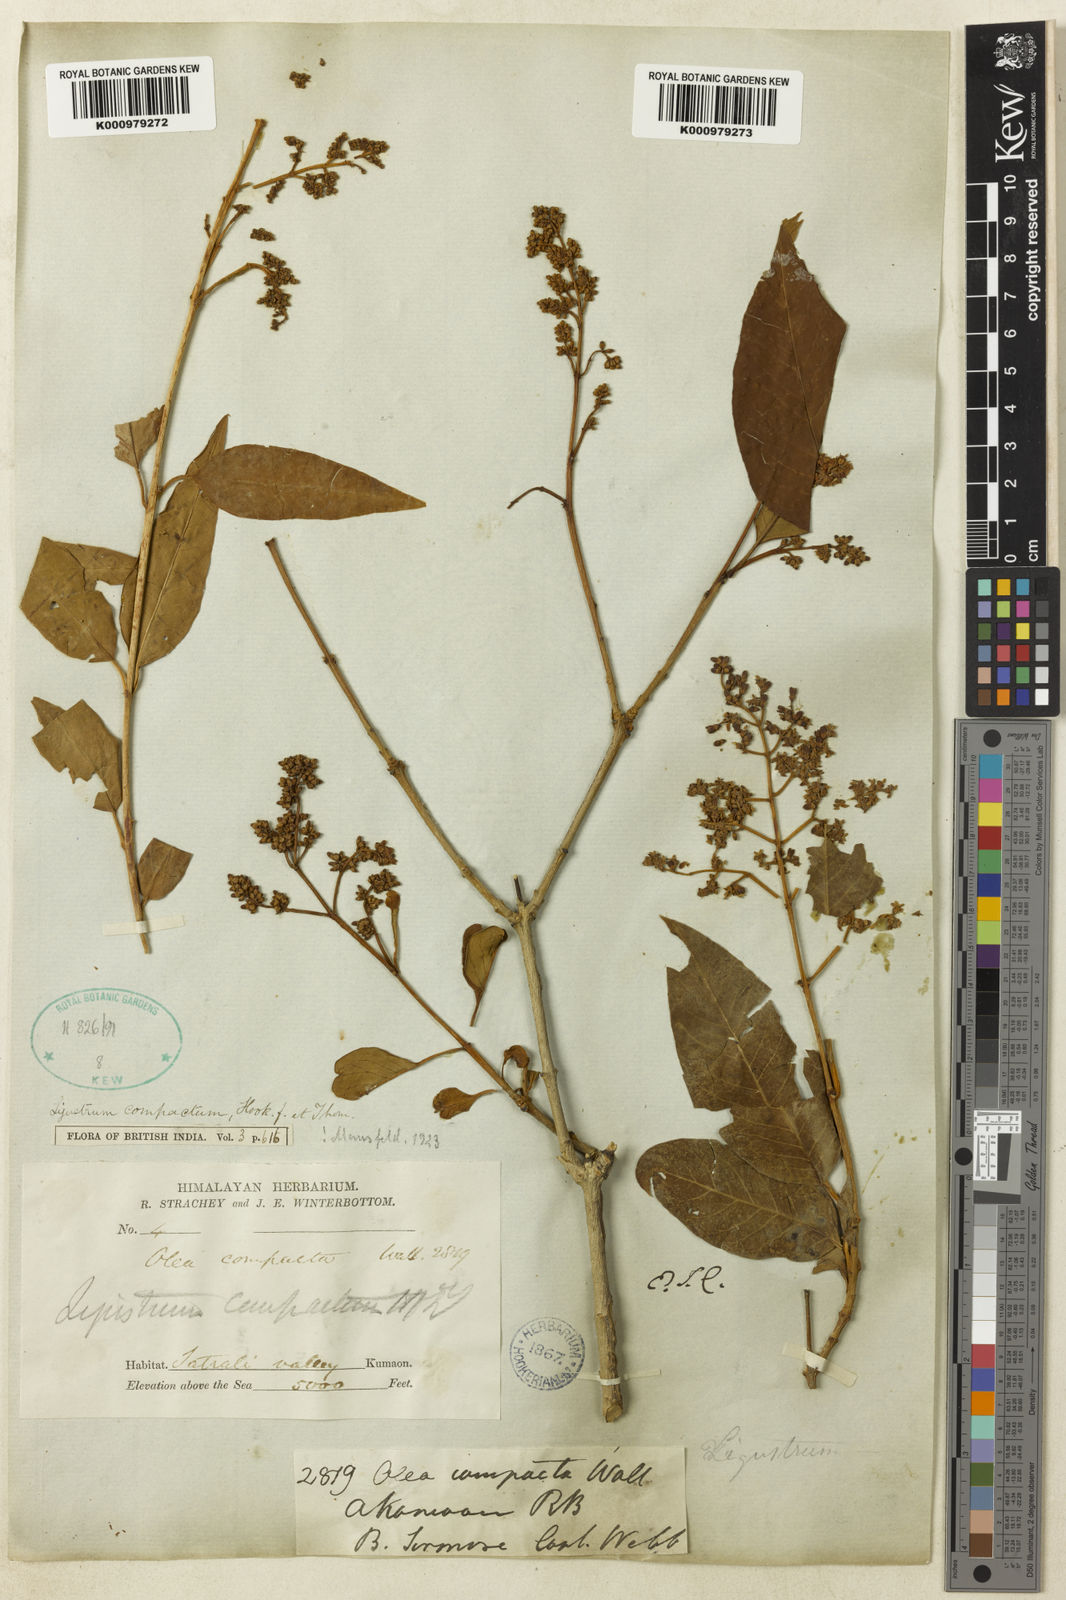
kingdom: Plantae
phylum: Tracheophyta
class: Magnoliopsida
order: Lamiales
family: Oleaceae
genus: Ligustrum
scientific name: Ligustrum compactum
